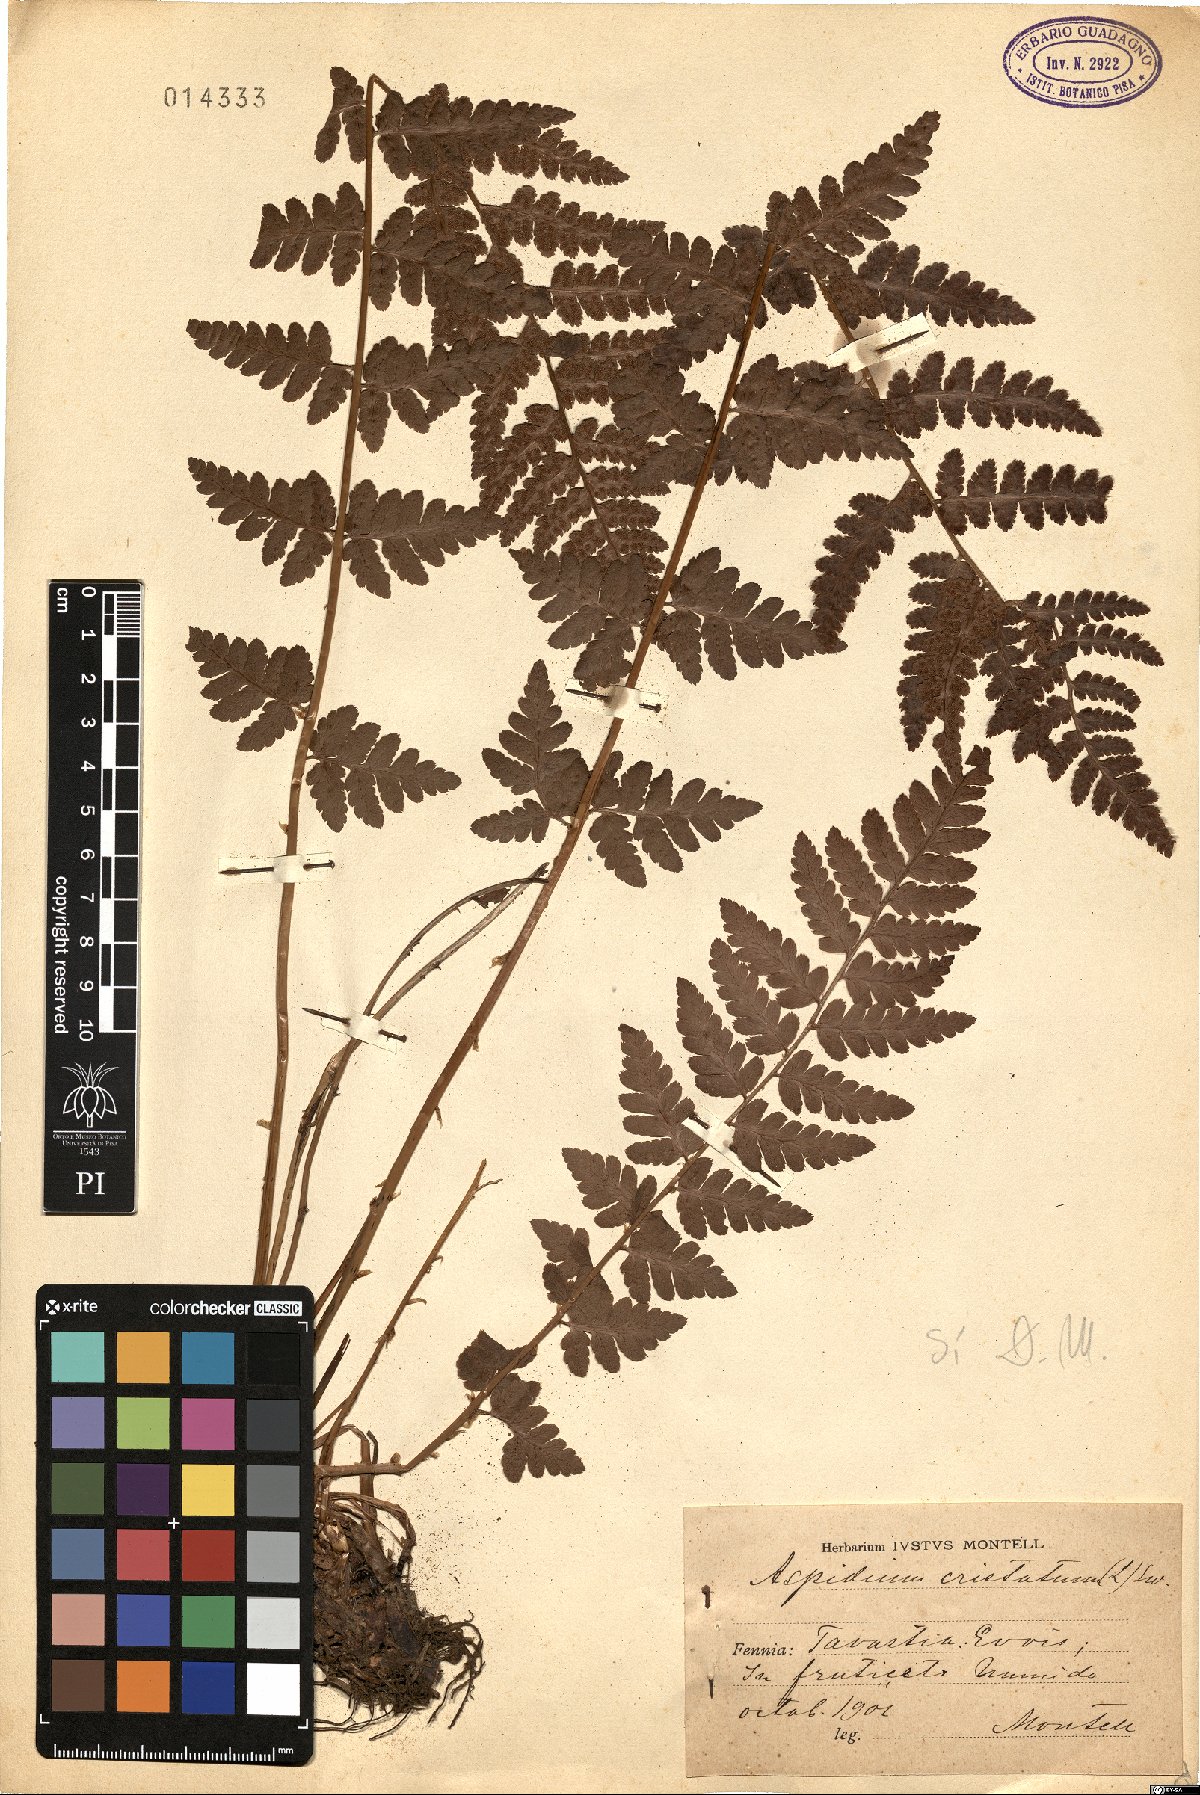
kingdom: Plantae
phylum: Tracheophyta
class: Polypodiopsida
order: Polypodiales
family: Dryopteridaceae
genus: Dryopteris
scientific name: Dryopteris cristata
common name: Crested wood fern
